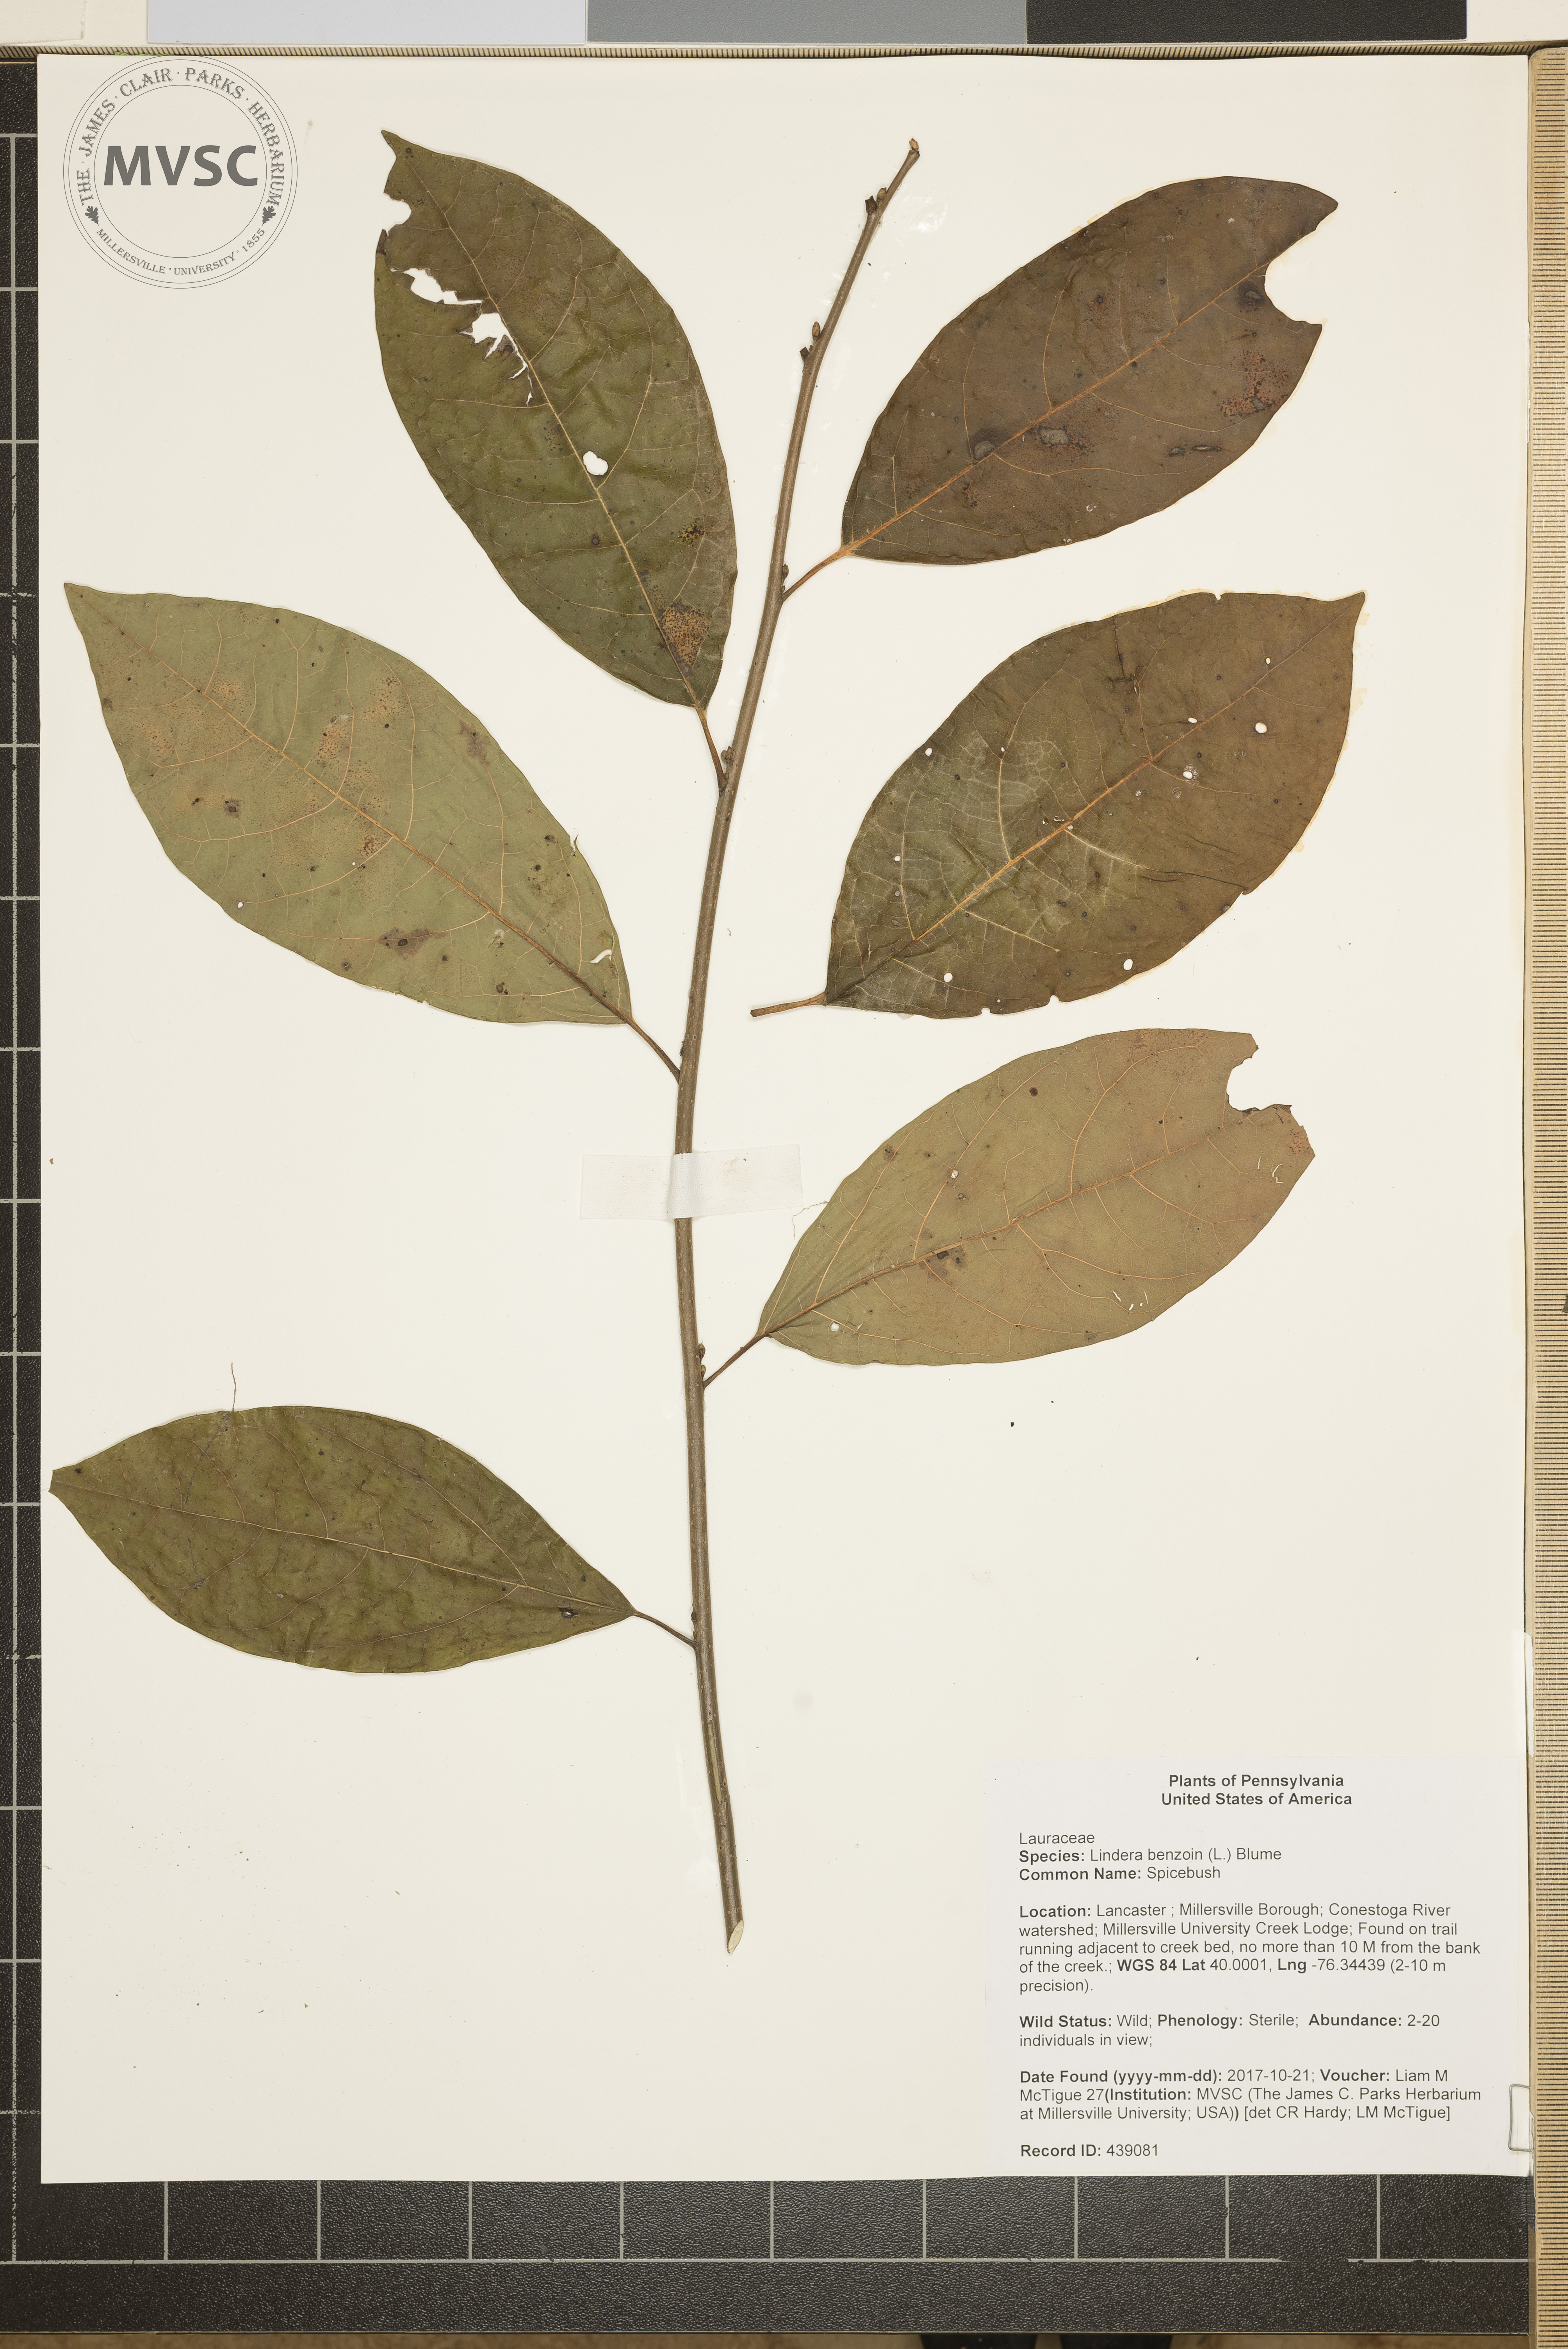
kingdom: Plantae
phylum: Tracheophyta
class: Magnoliopsida
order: Laurales
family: Lauraceae
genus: Lindera
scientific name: Lindera benzoin
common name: Spicebush
